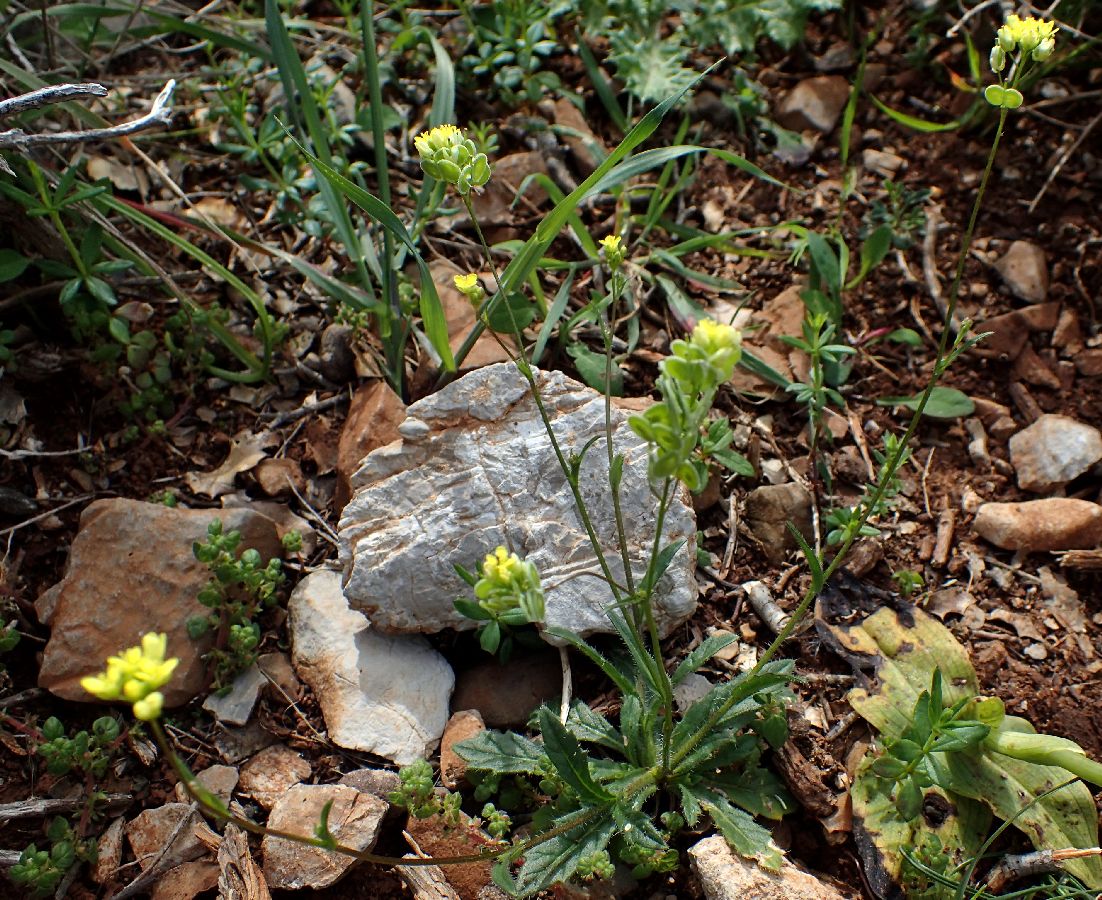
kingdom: Plantae
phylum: Tracheophyta
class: Magnoliopsida
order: Brassicales
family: Brassicaceae
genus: Biscutella
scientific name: Biscutella didyma
